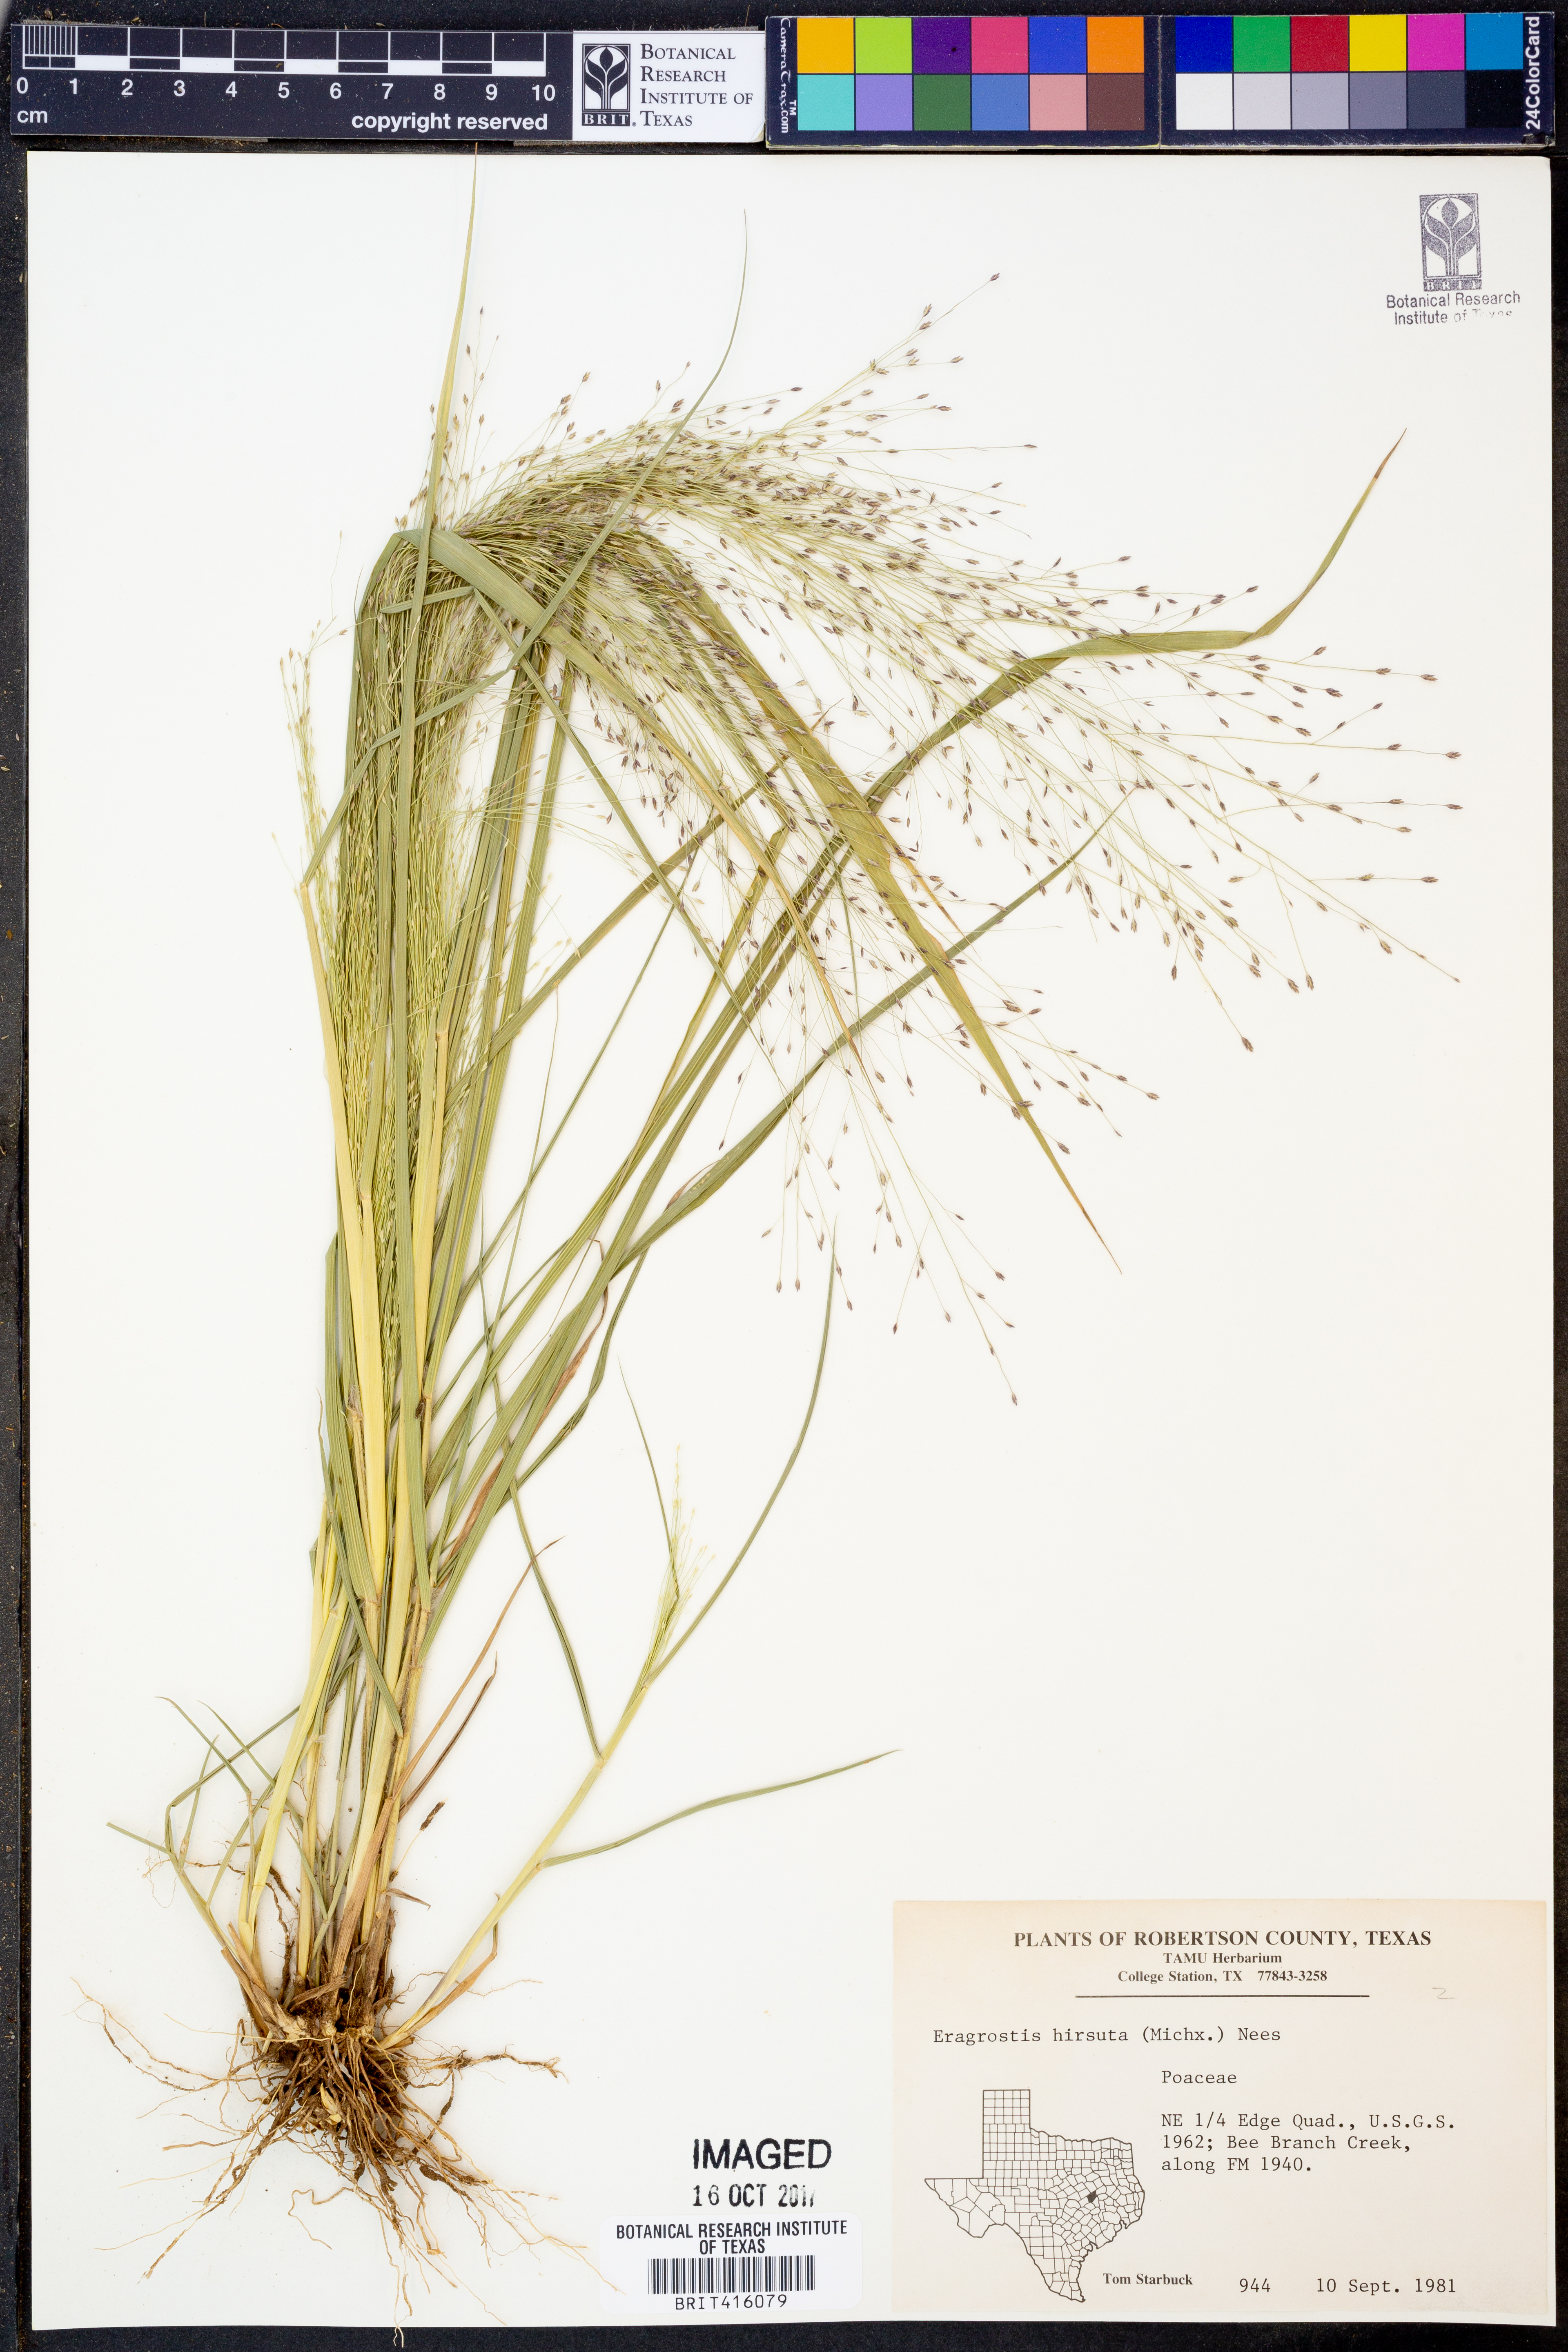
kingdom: Plantae
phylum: Tracheophyta
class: Liliopsida
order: Poales
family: Poaceae
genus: Eragrostis
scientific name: Eragrostis hirsuta
